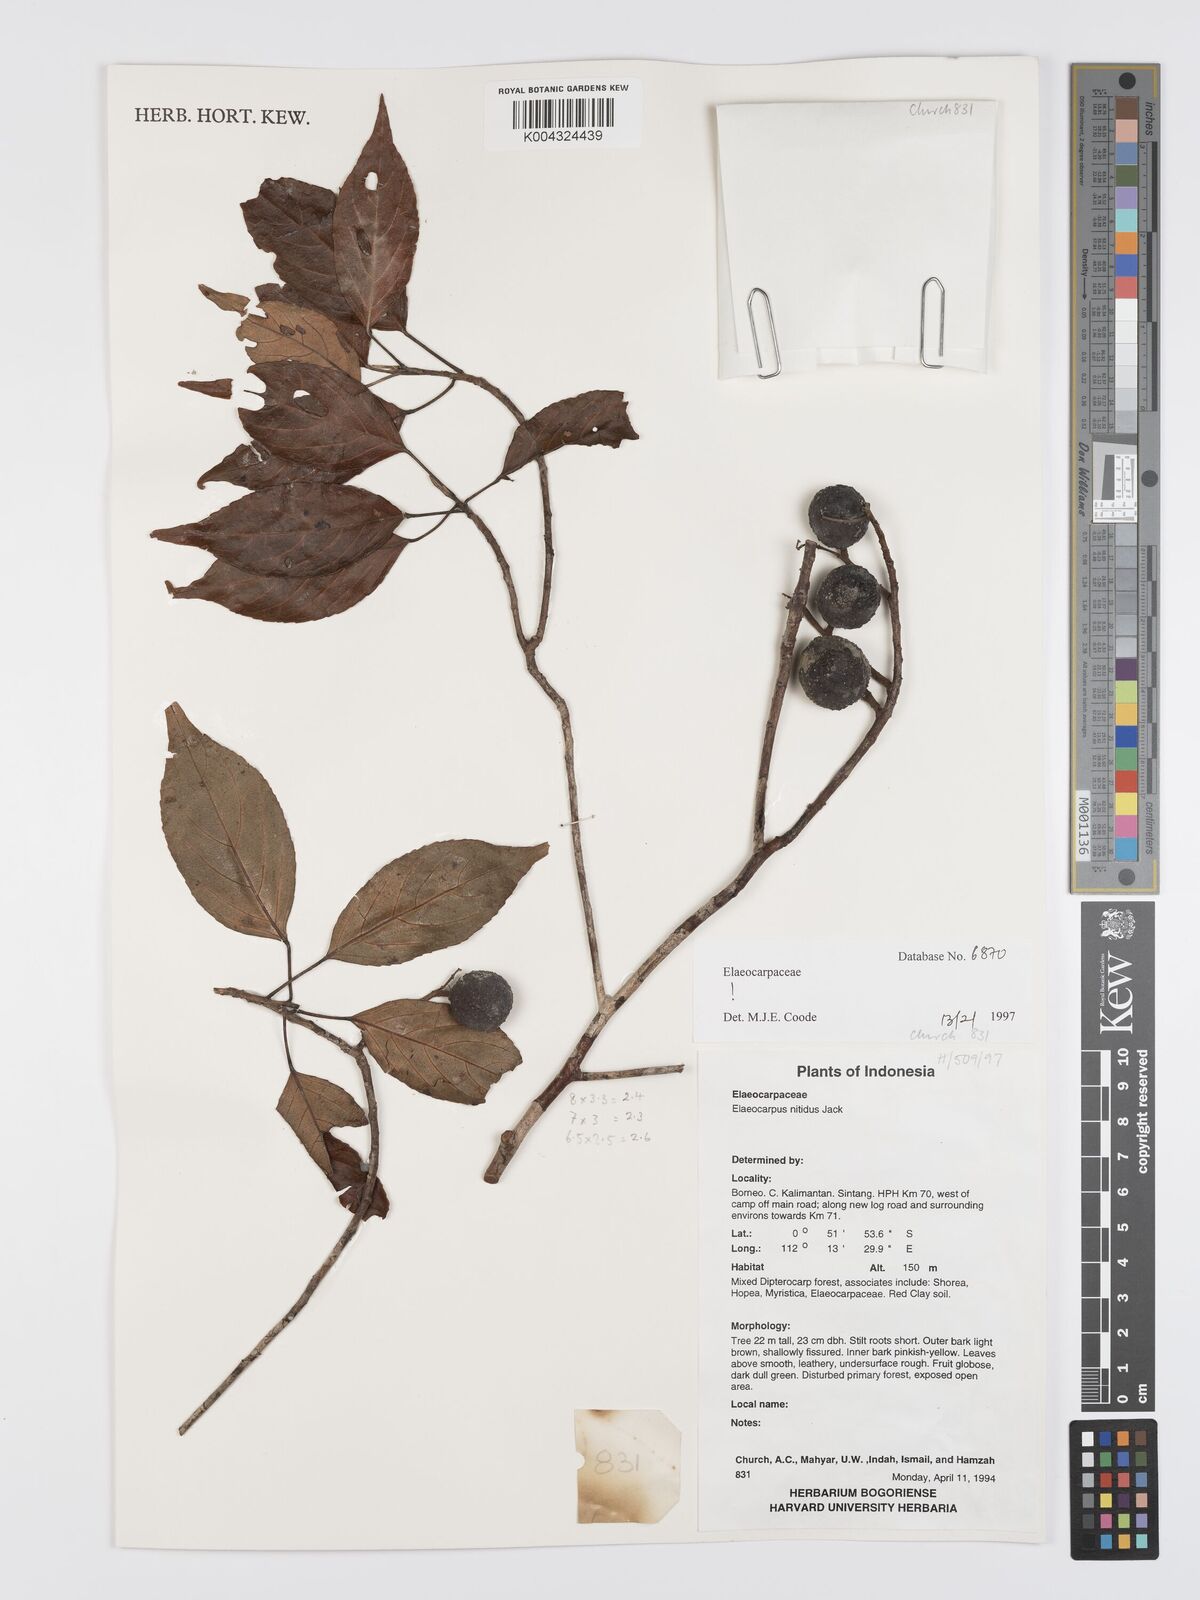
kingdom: Plantae
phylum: Tracheophyta
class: Magnoliopsida
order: Oxalidales
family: Elaeocarpaceae
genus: Elaeocarpus
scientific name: Elaeocarpus nitidus
